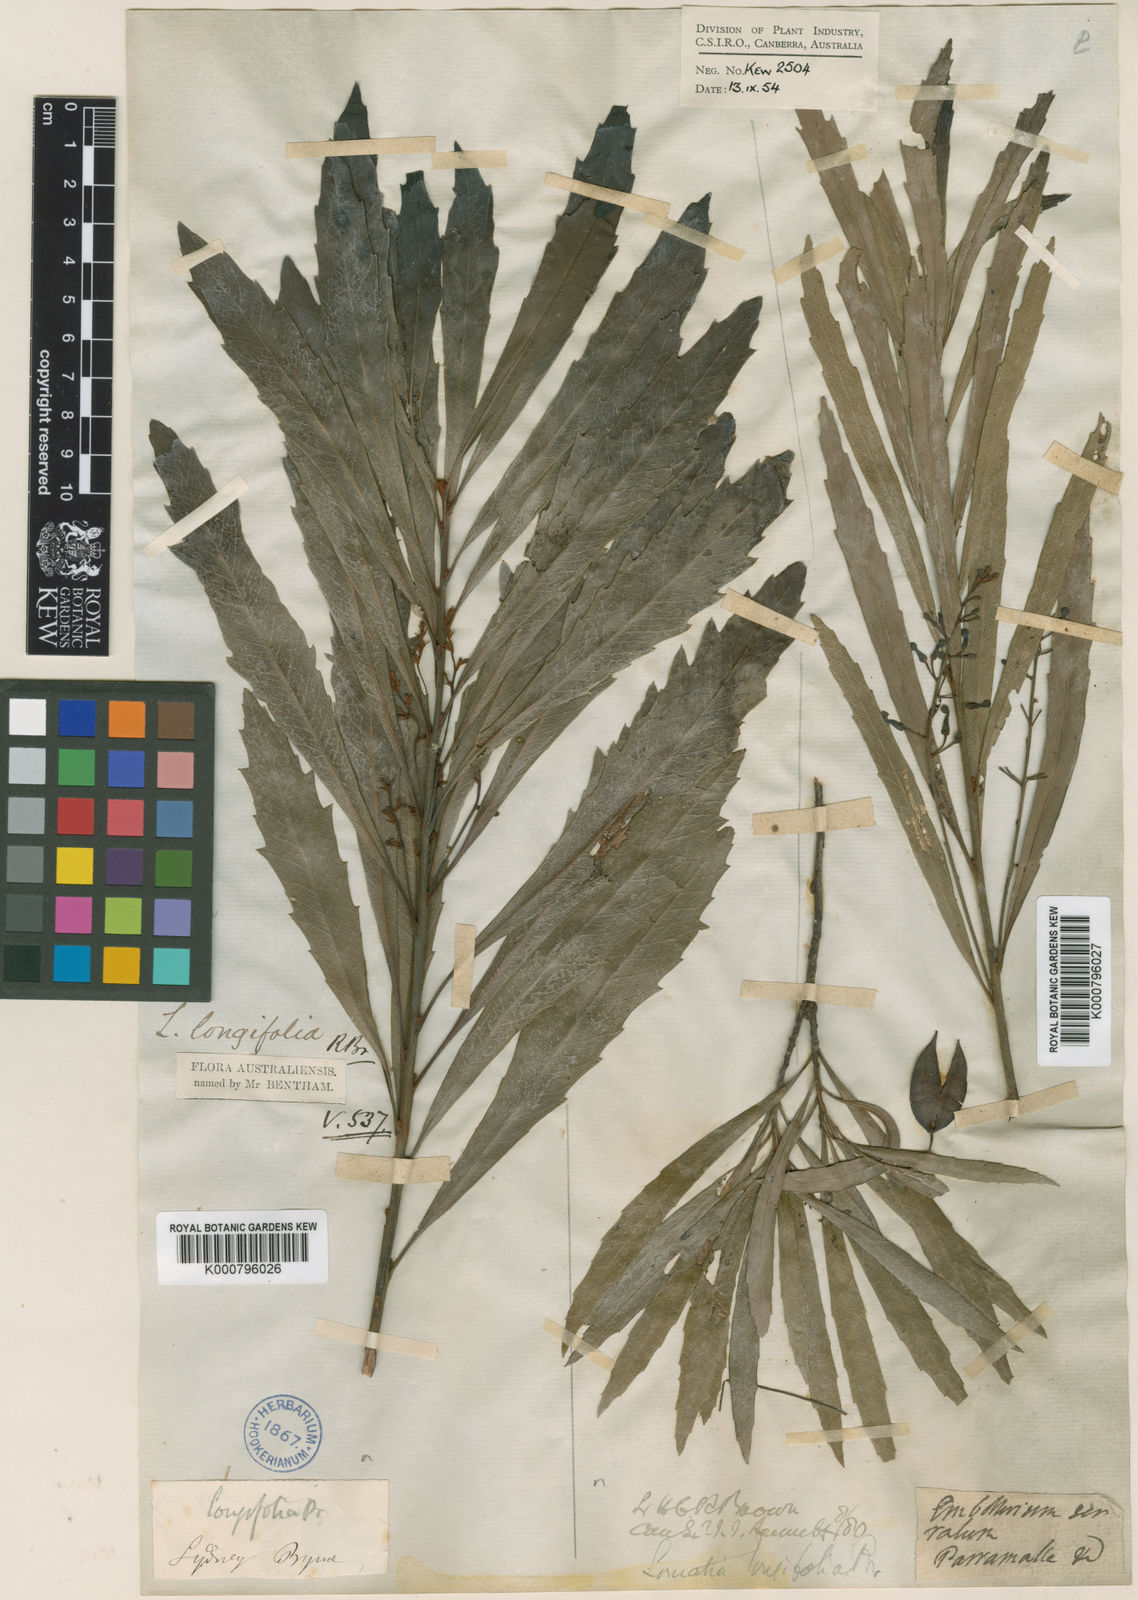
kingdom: Plantae
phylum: Tracheophyta
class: Magnoliopsida
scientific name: Magnoliopsida
